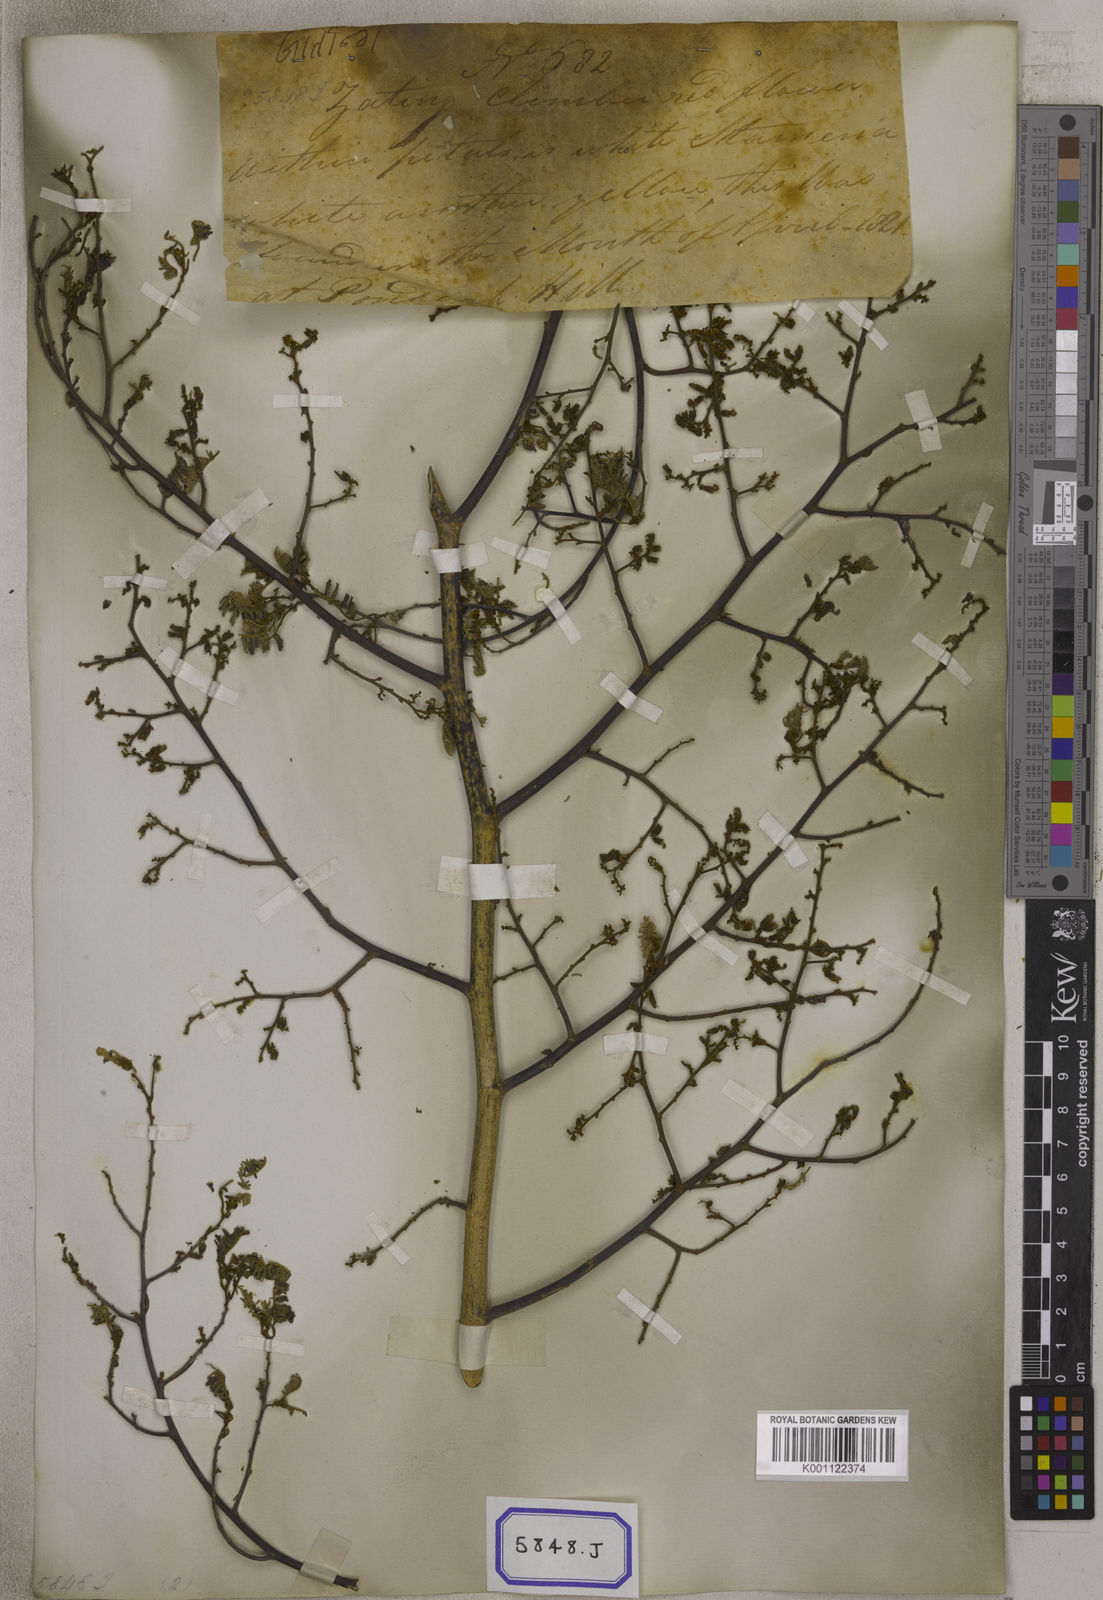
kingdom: Plantae
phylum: Tracheophyta
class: Magnoliopsida
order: Fabales
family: Fabaceae
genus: Dalbergia
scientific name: Dalbergia lanceolaria
